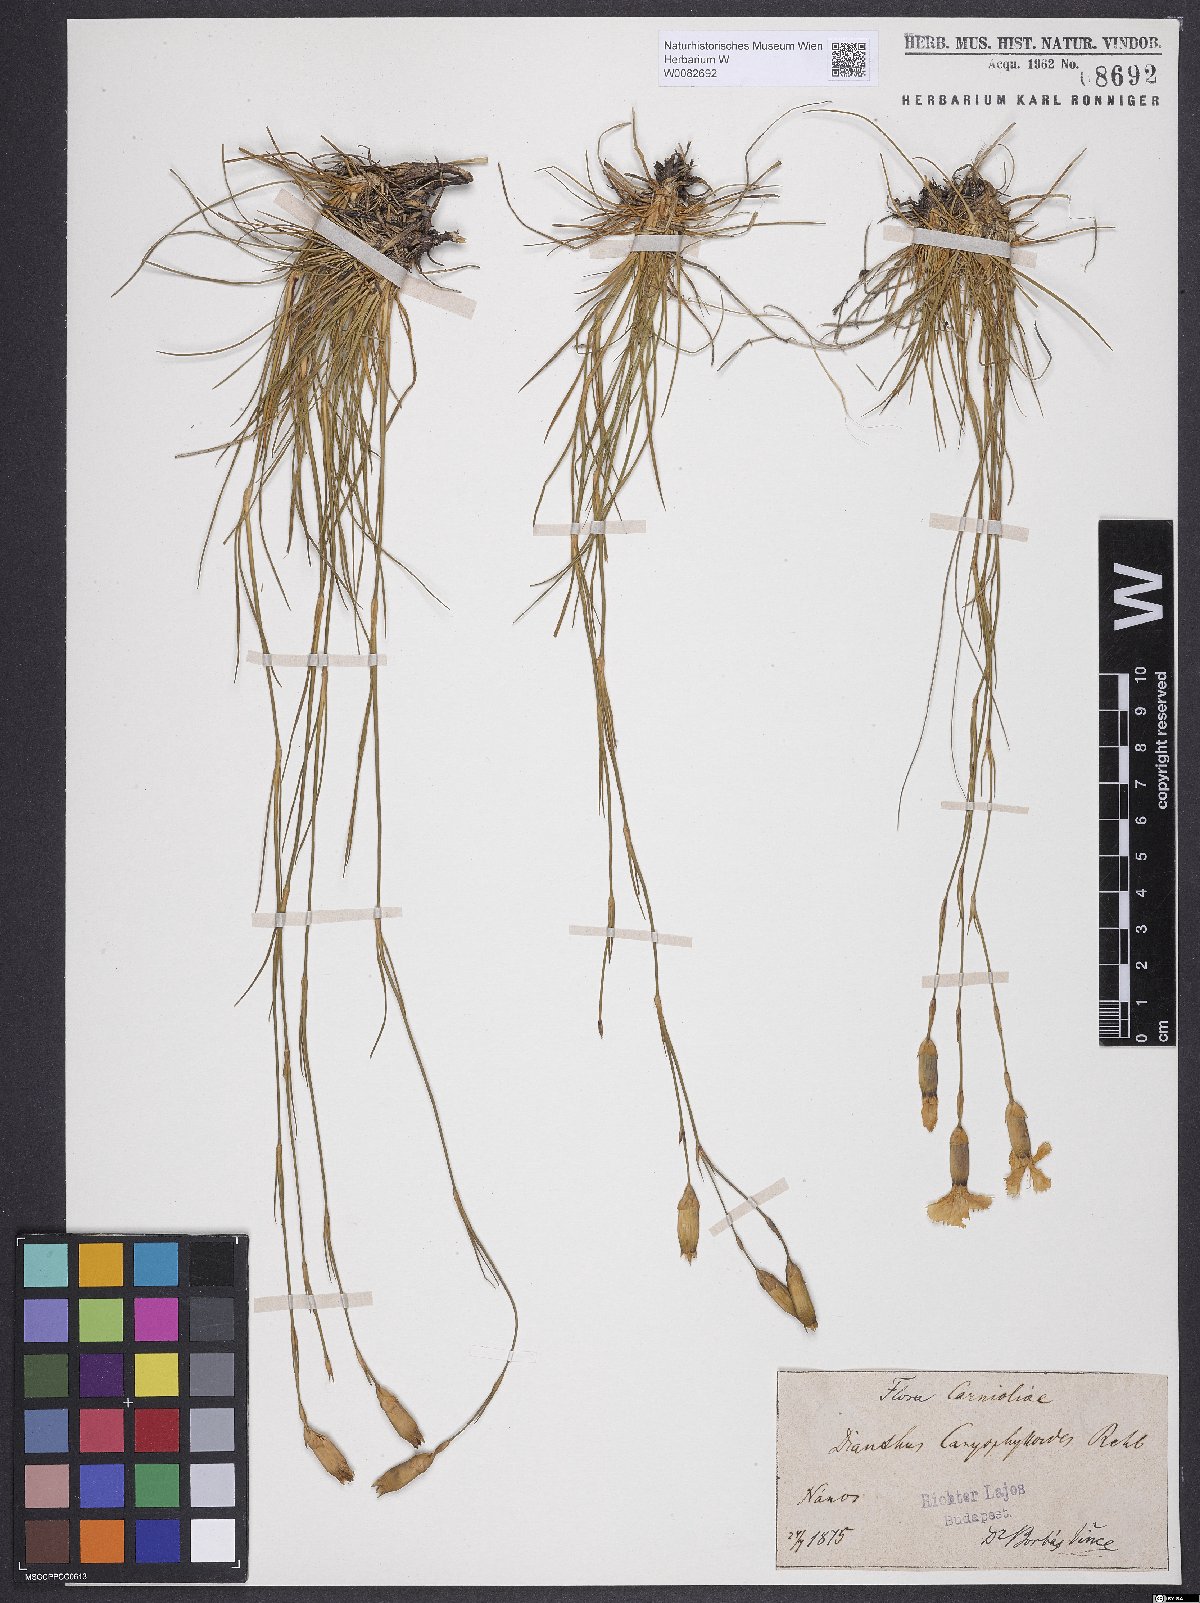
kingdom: Plantae
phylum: Tracheophyta
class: Magnoliopsida
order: Caryophyllales
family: Caryophyllaceae
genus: Dianthus
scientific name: Dianthus sylvestris
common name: Wood pink
